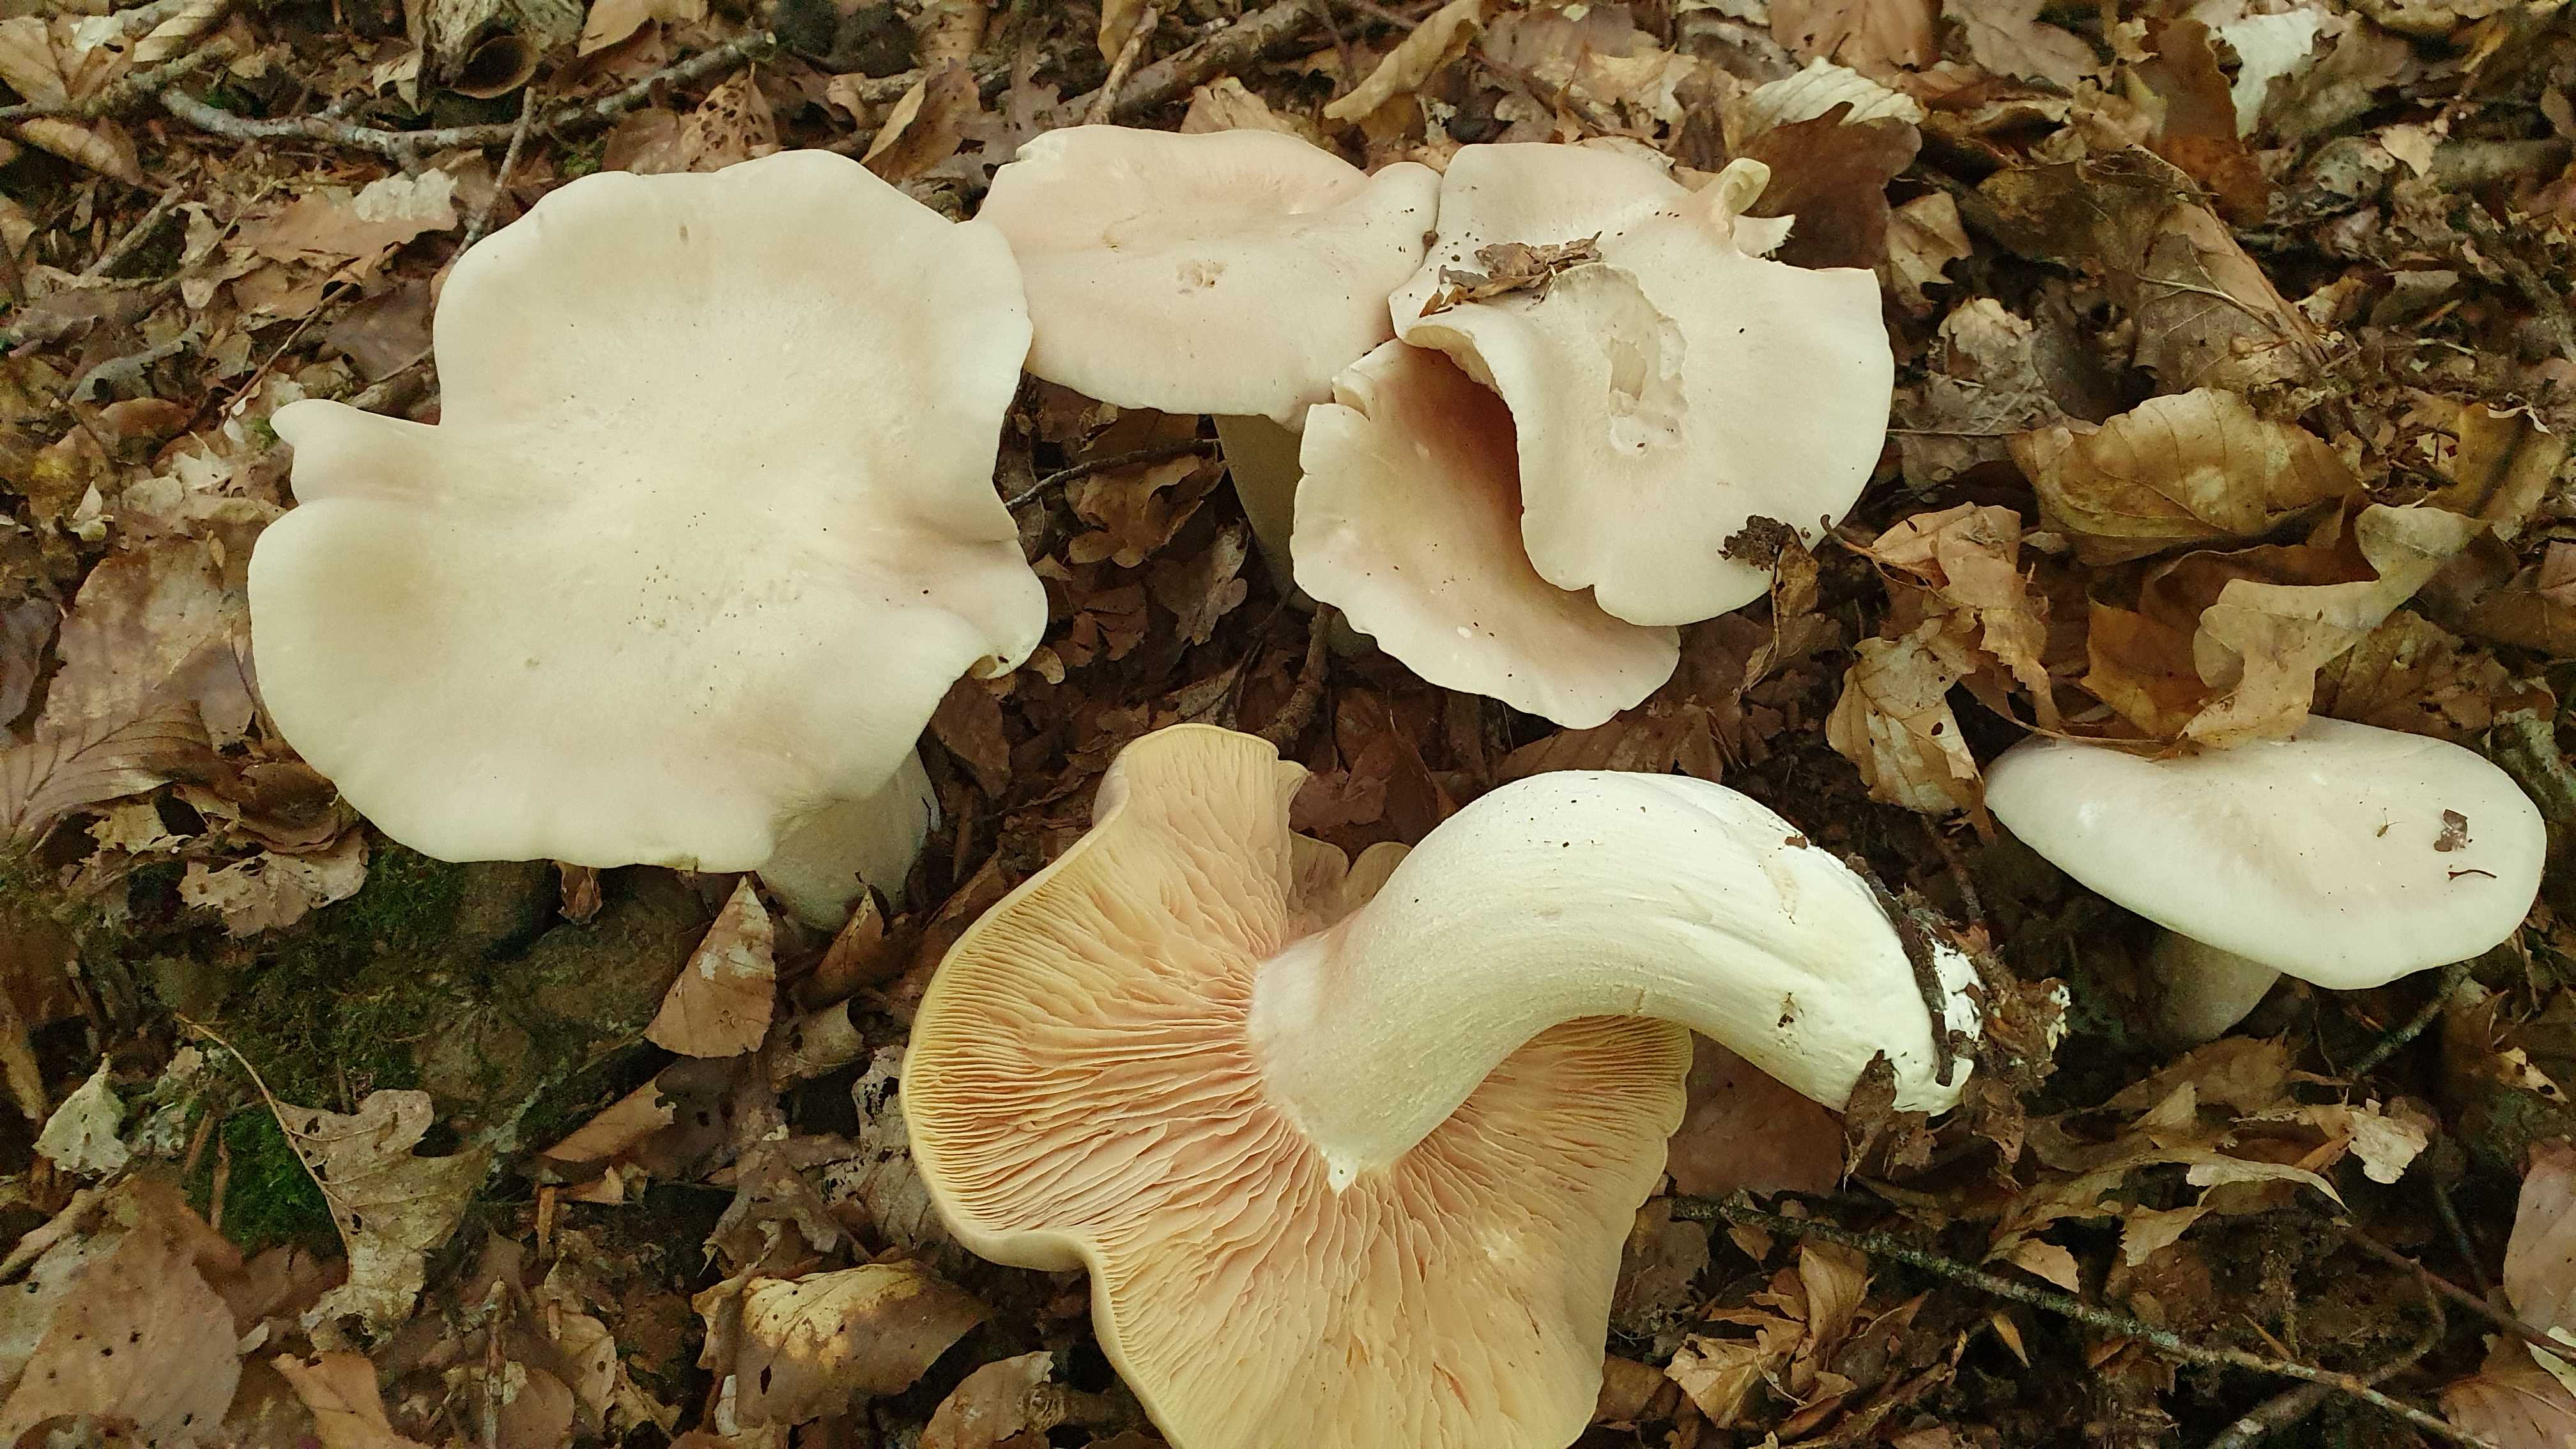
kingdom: Fungi
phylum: Basidiomycota
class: Agaricomycetes
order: Agaricales
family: Entolomataceae
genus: Entoloma
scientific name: Entoloma sinuatum
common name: giftig rødblad
